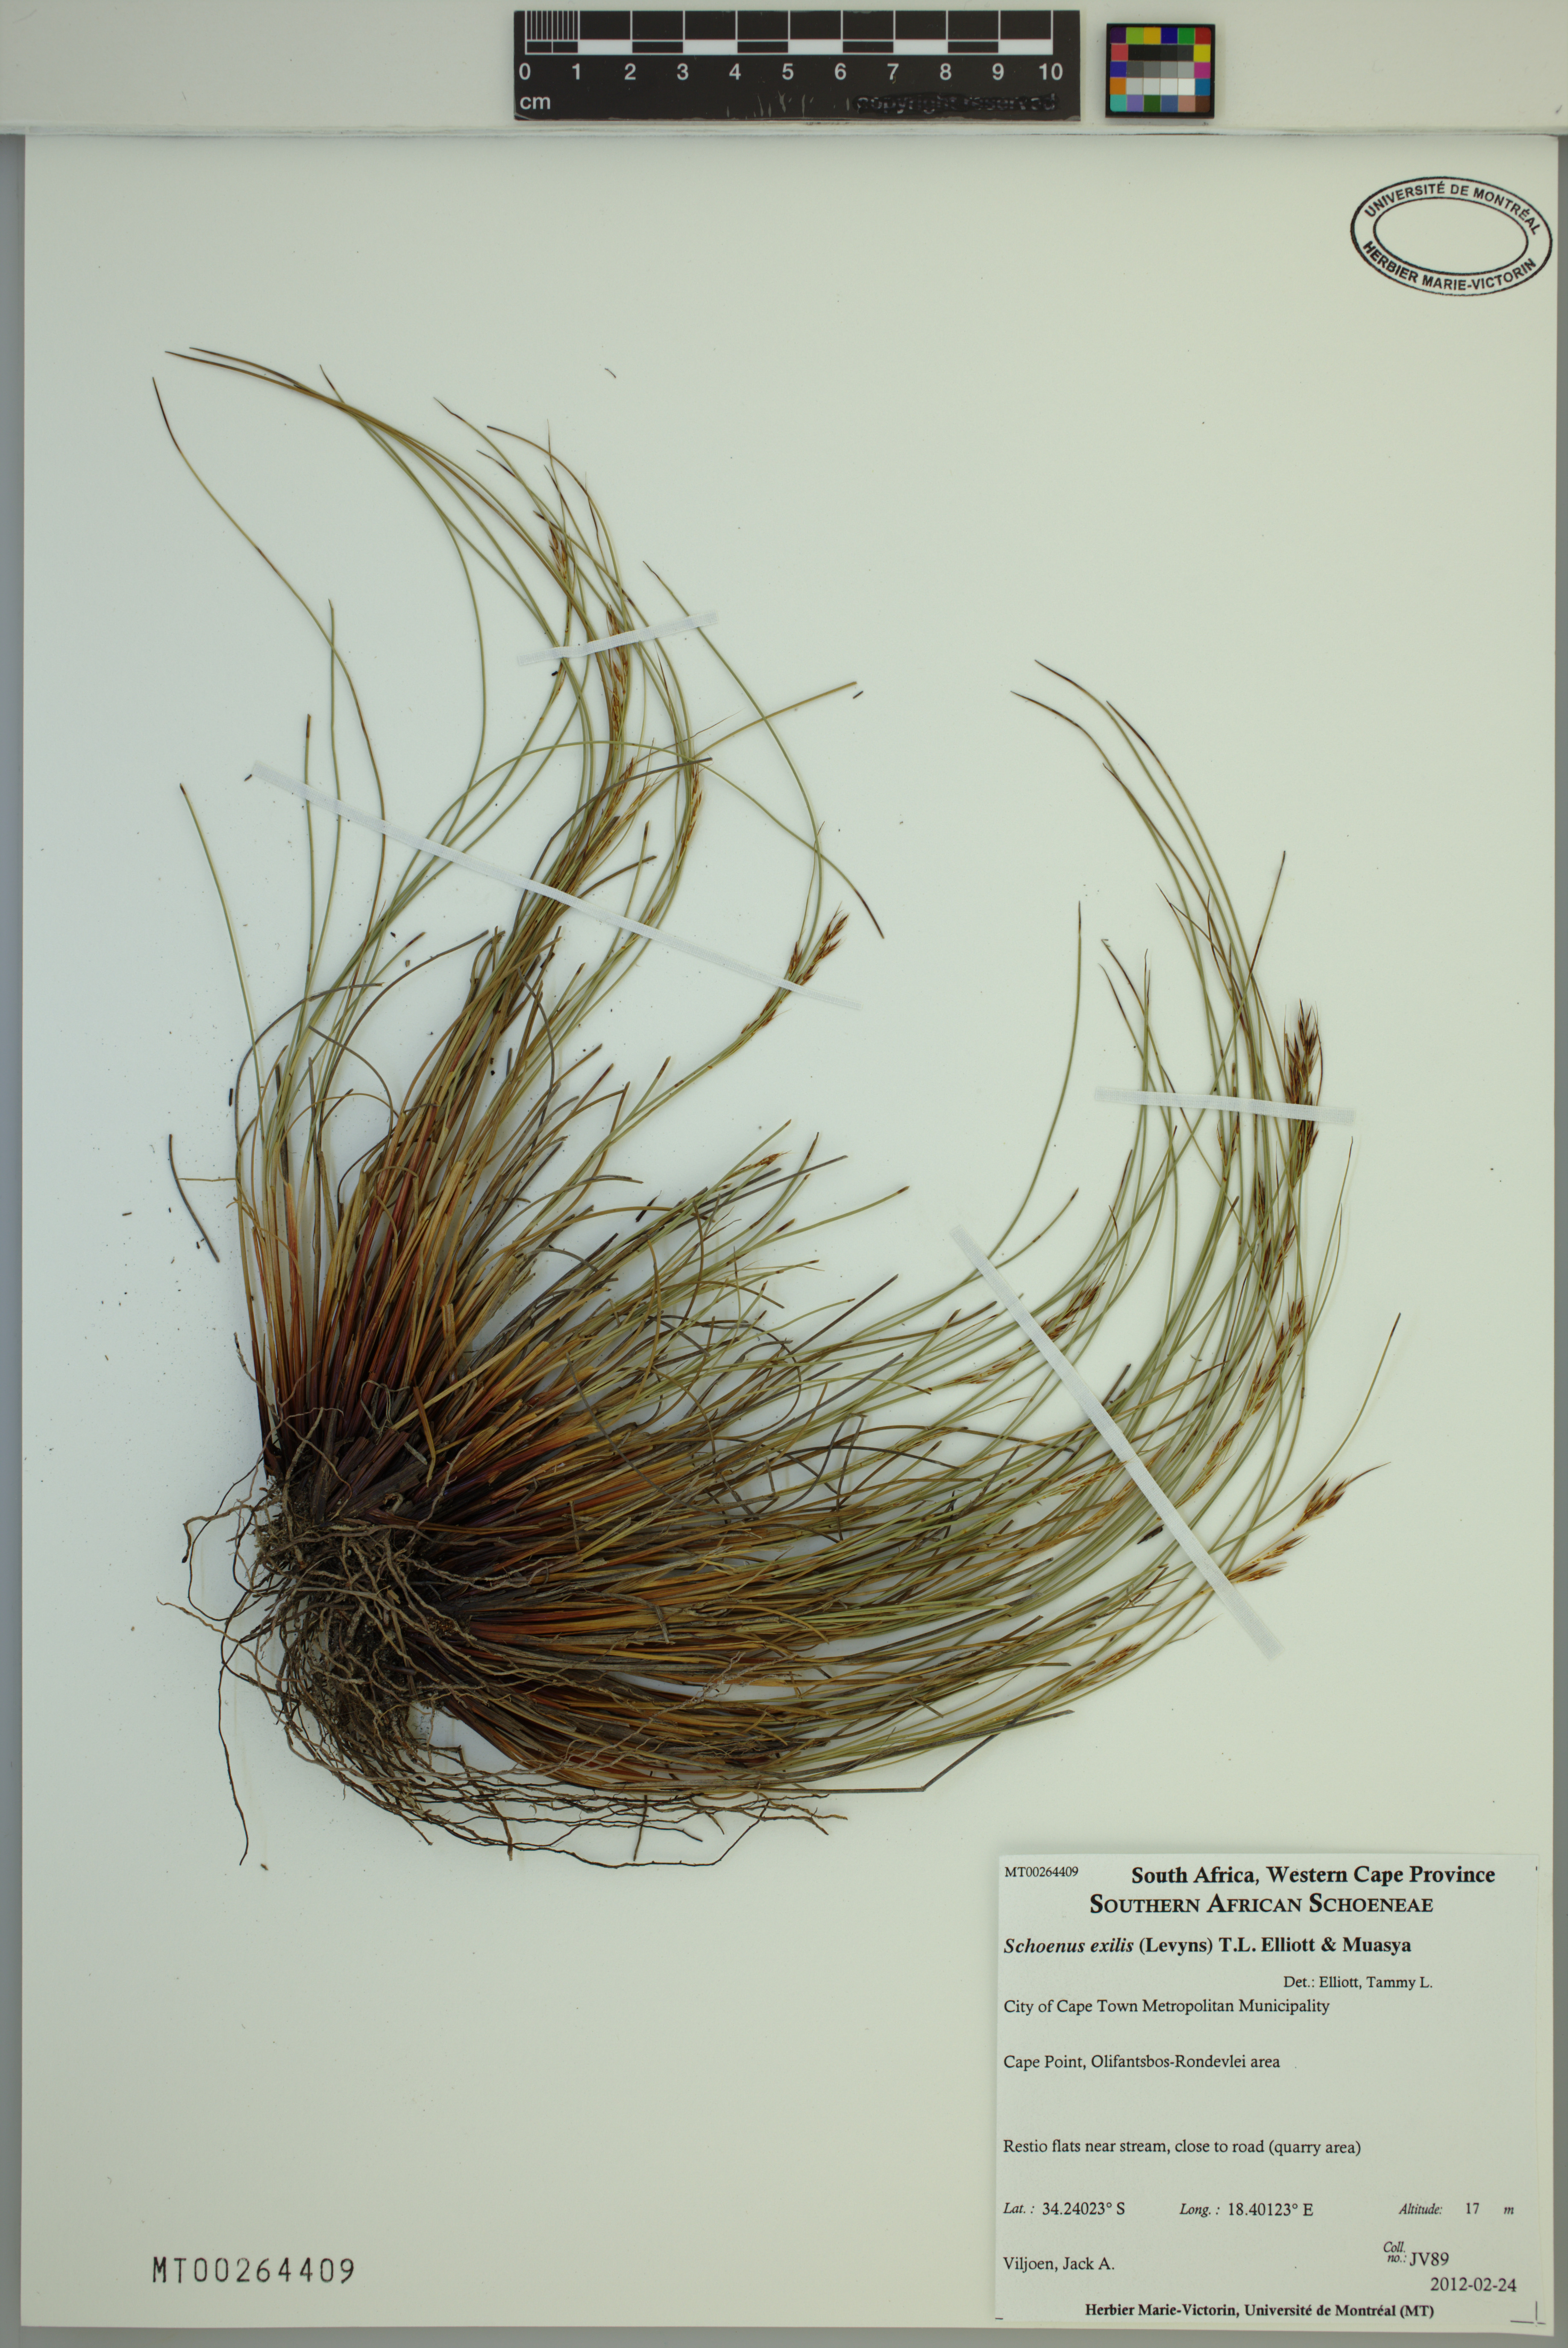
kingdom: Plantae
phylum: Tracheophyta
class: Liliopsida
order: Poales
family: Cyperaceae
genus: Schoenus
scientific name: Schoenus exilis
